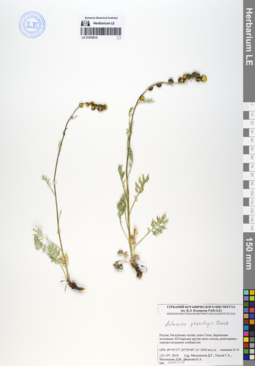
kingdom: Plantae
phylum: Tracheophyta
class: Magnoliopsida
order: Asterales
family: Asteraceae
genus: Artemisia
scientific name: Artemisia phaeolepis
